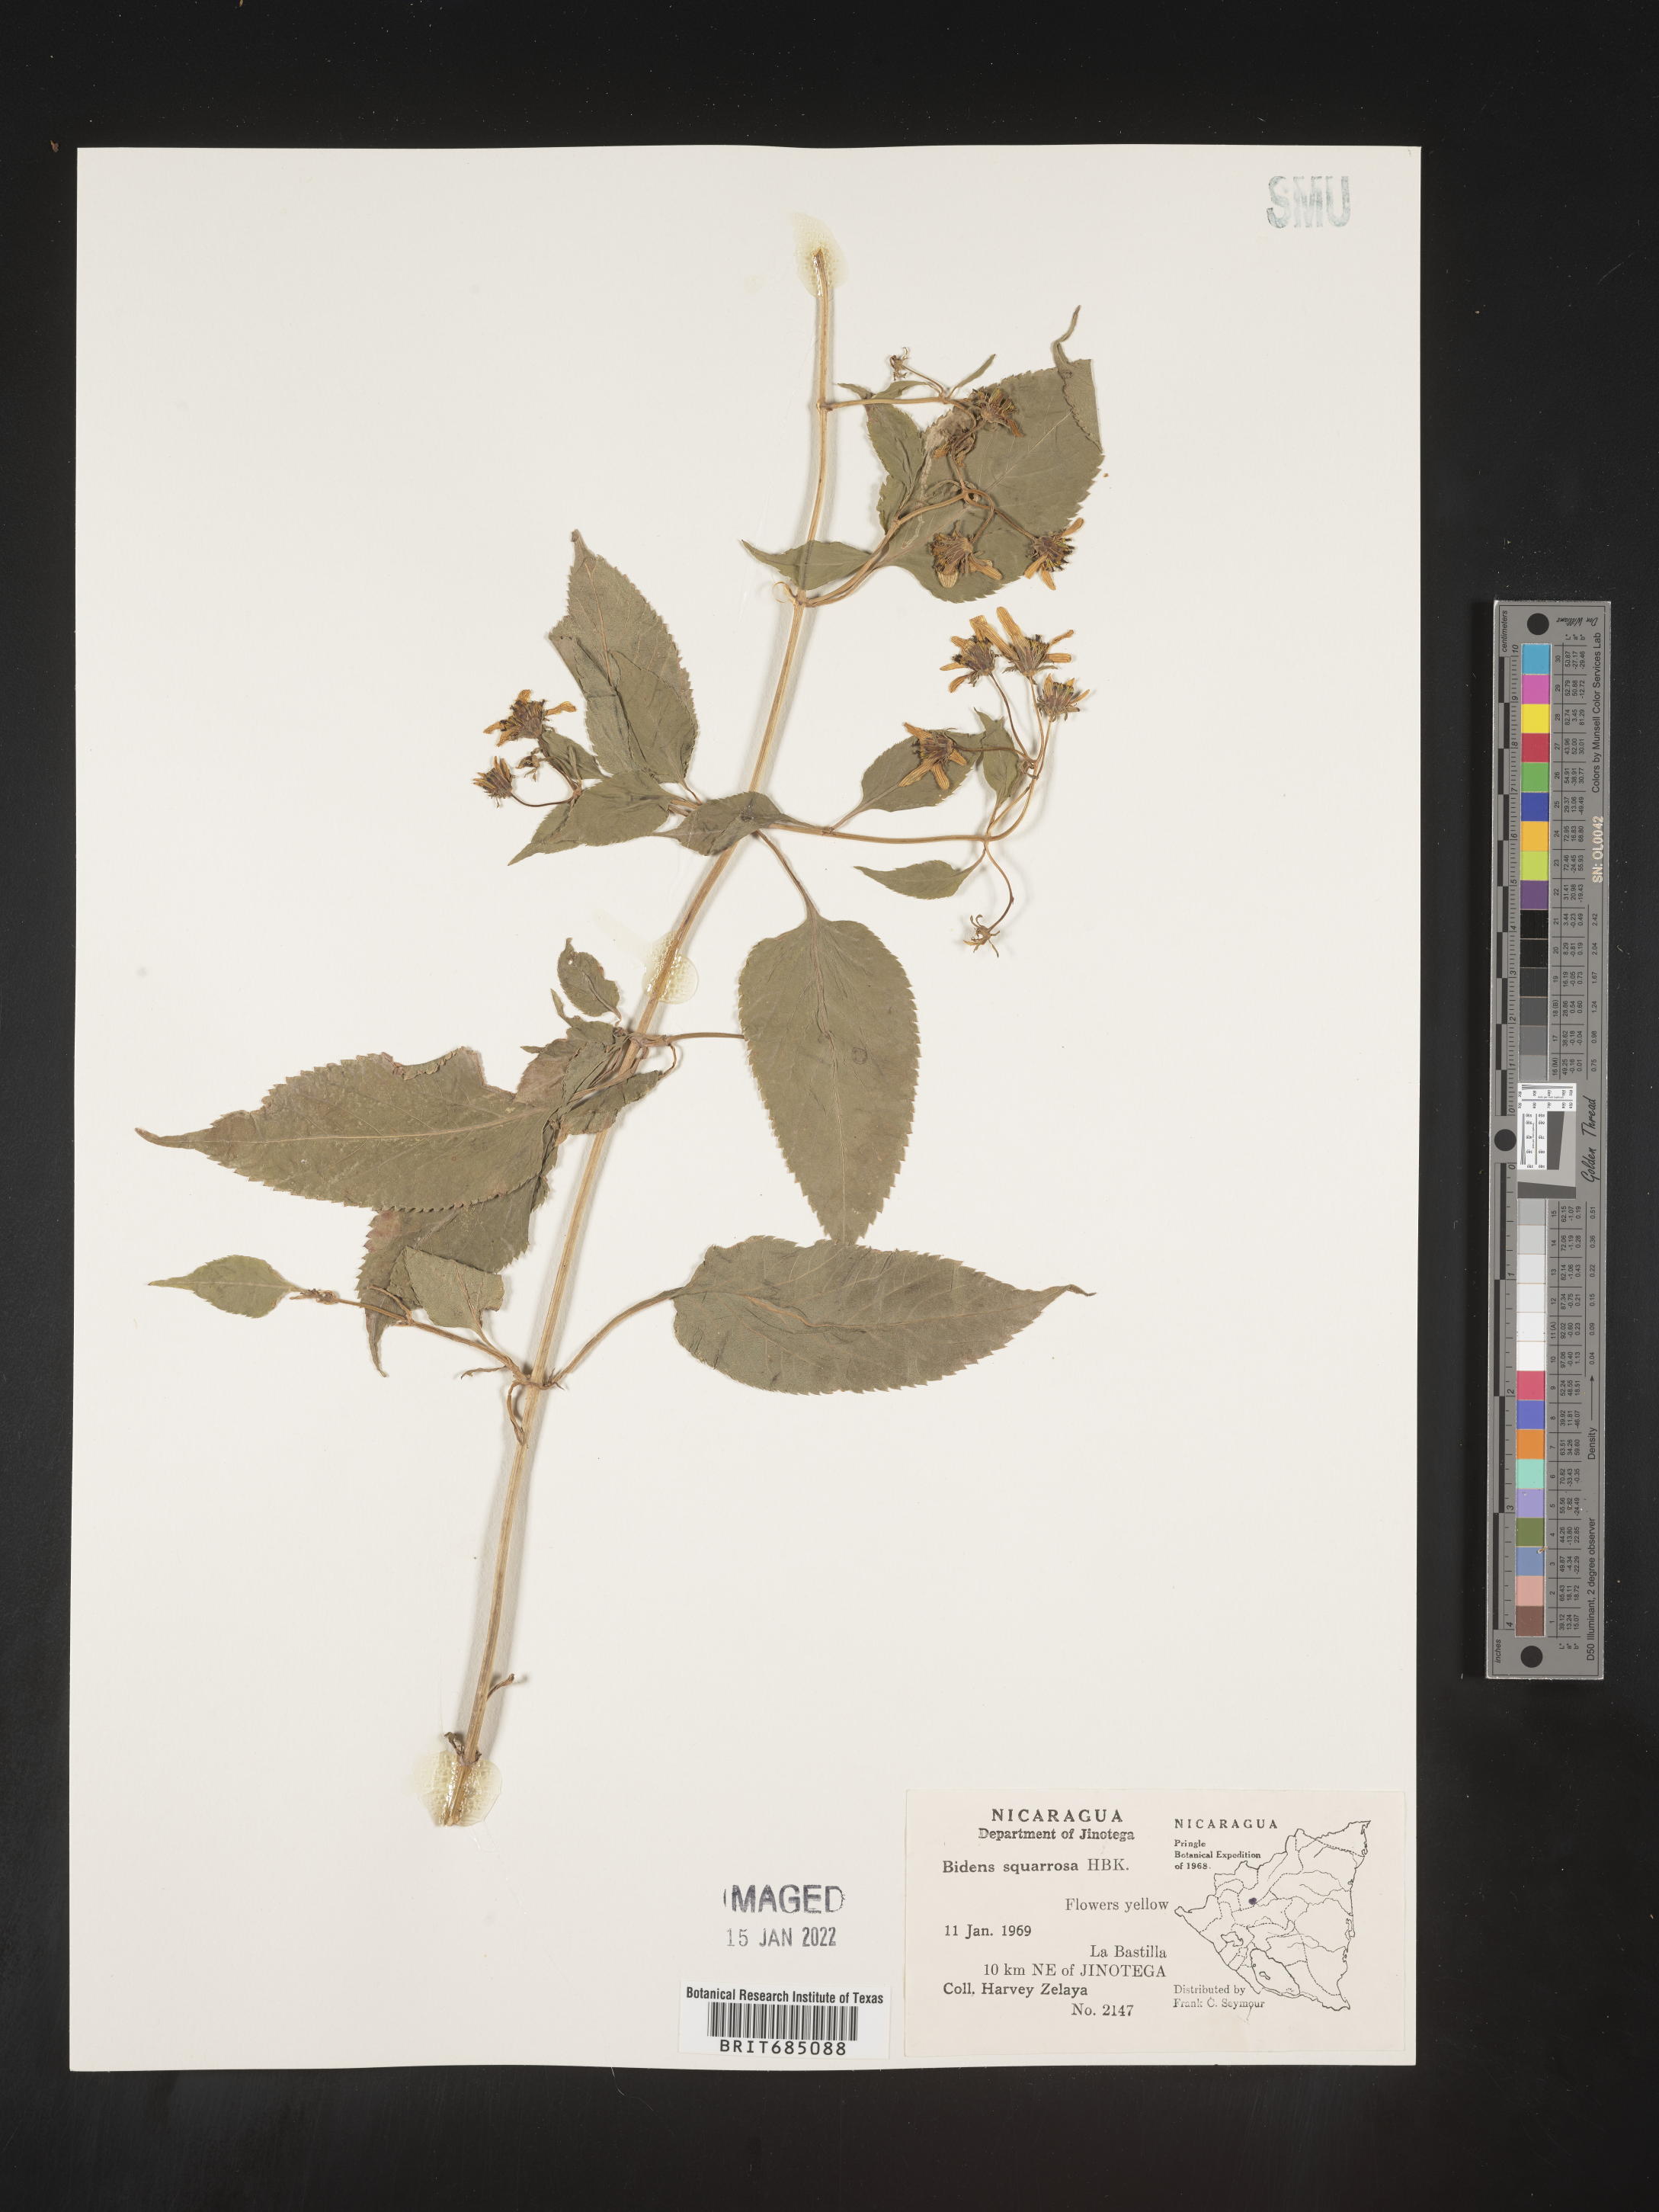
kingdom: Plantae
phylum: Tracheophyta
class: Magnoliopsida
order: Asterales
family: Asteraceae
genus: Bidens
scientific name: Bidens rubicundula
